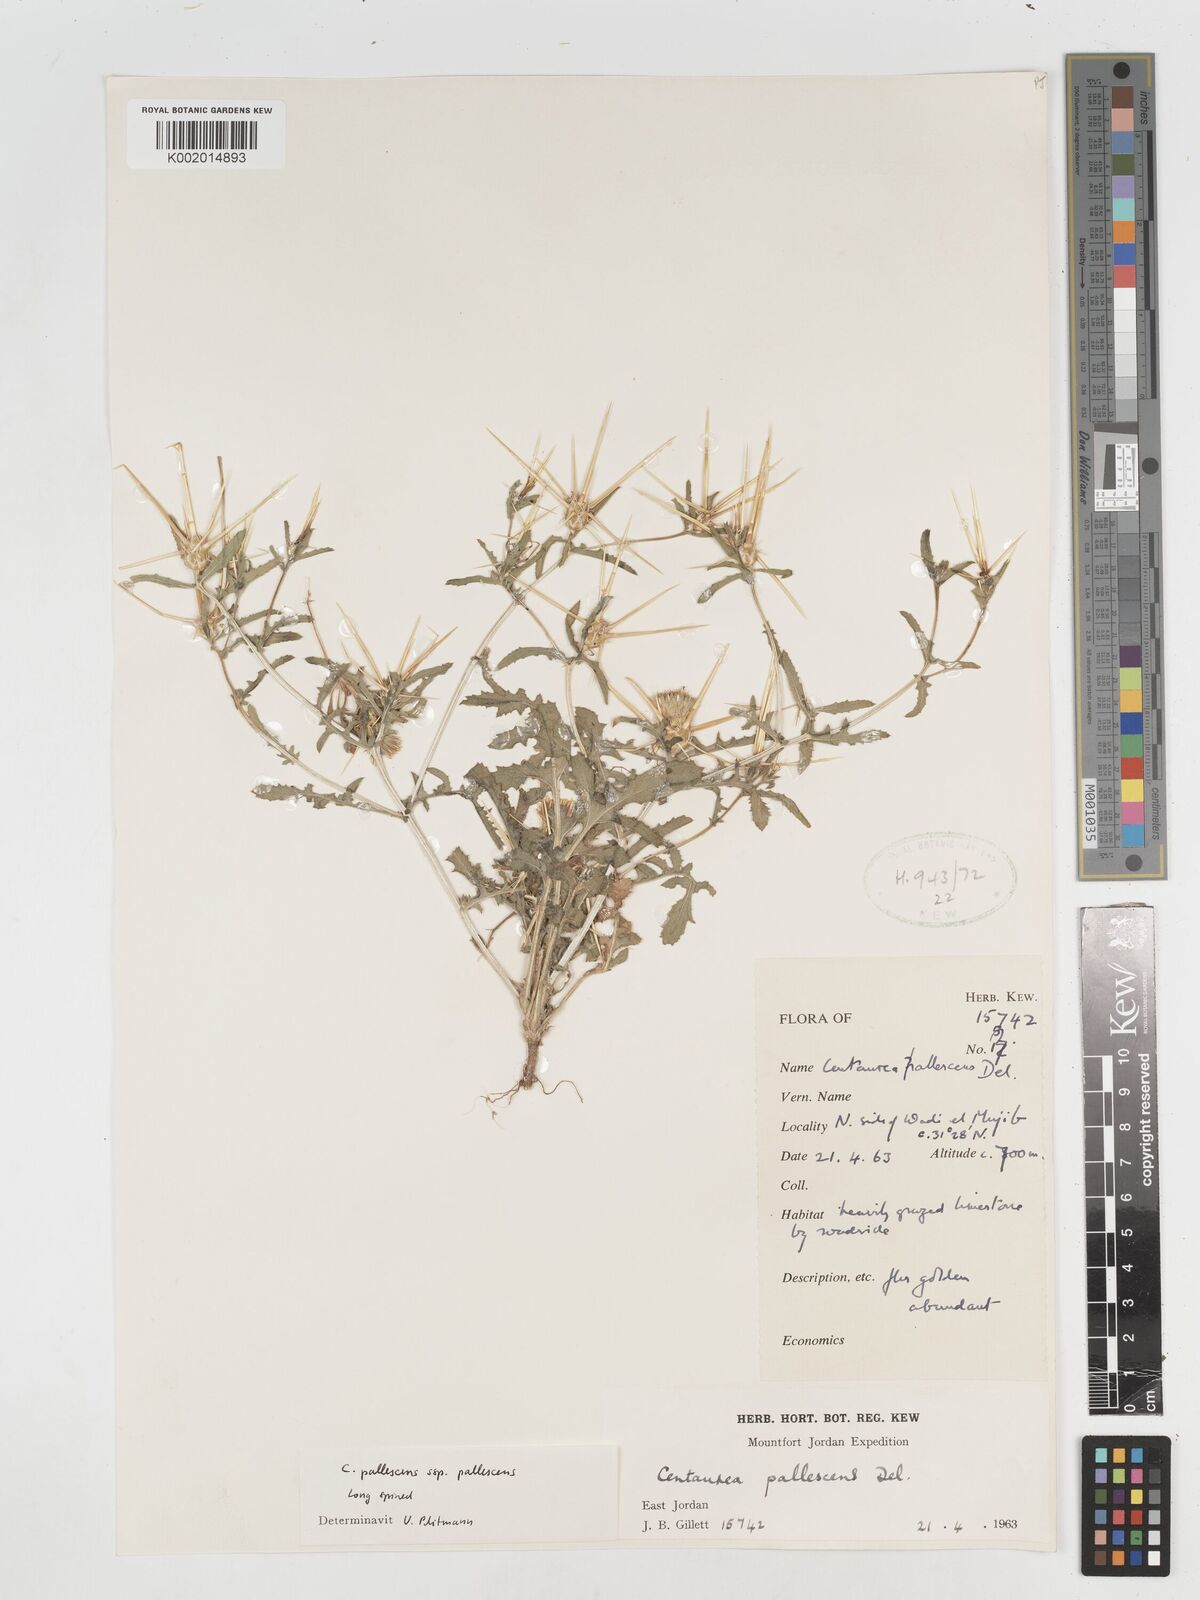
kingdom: Plantae
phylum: Tracheophyta
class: Magnoliopsida
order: Asterales
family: Asteraceae
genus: Centaurea
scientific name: Centaurea pallescens
